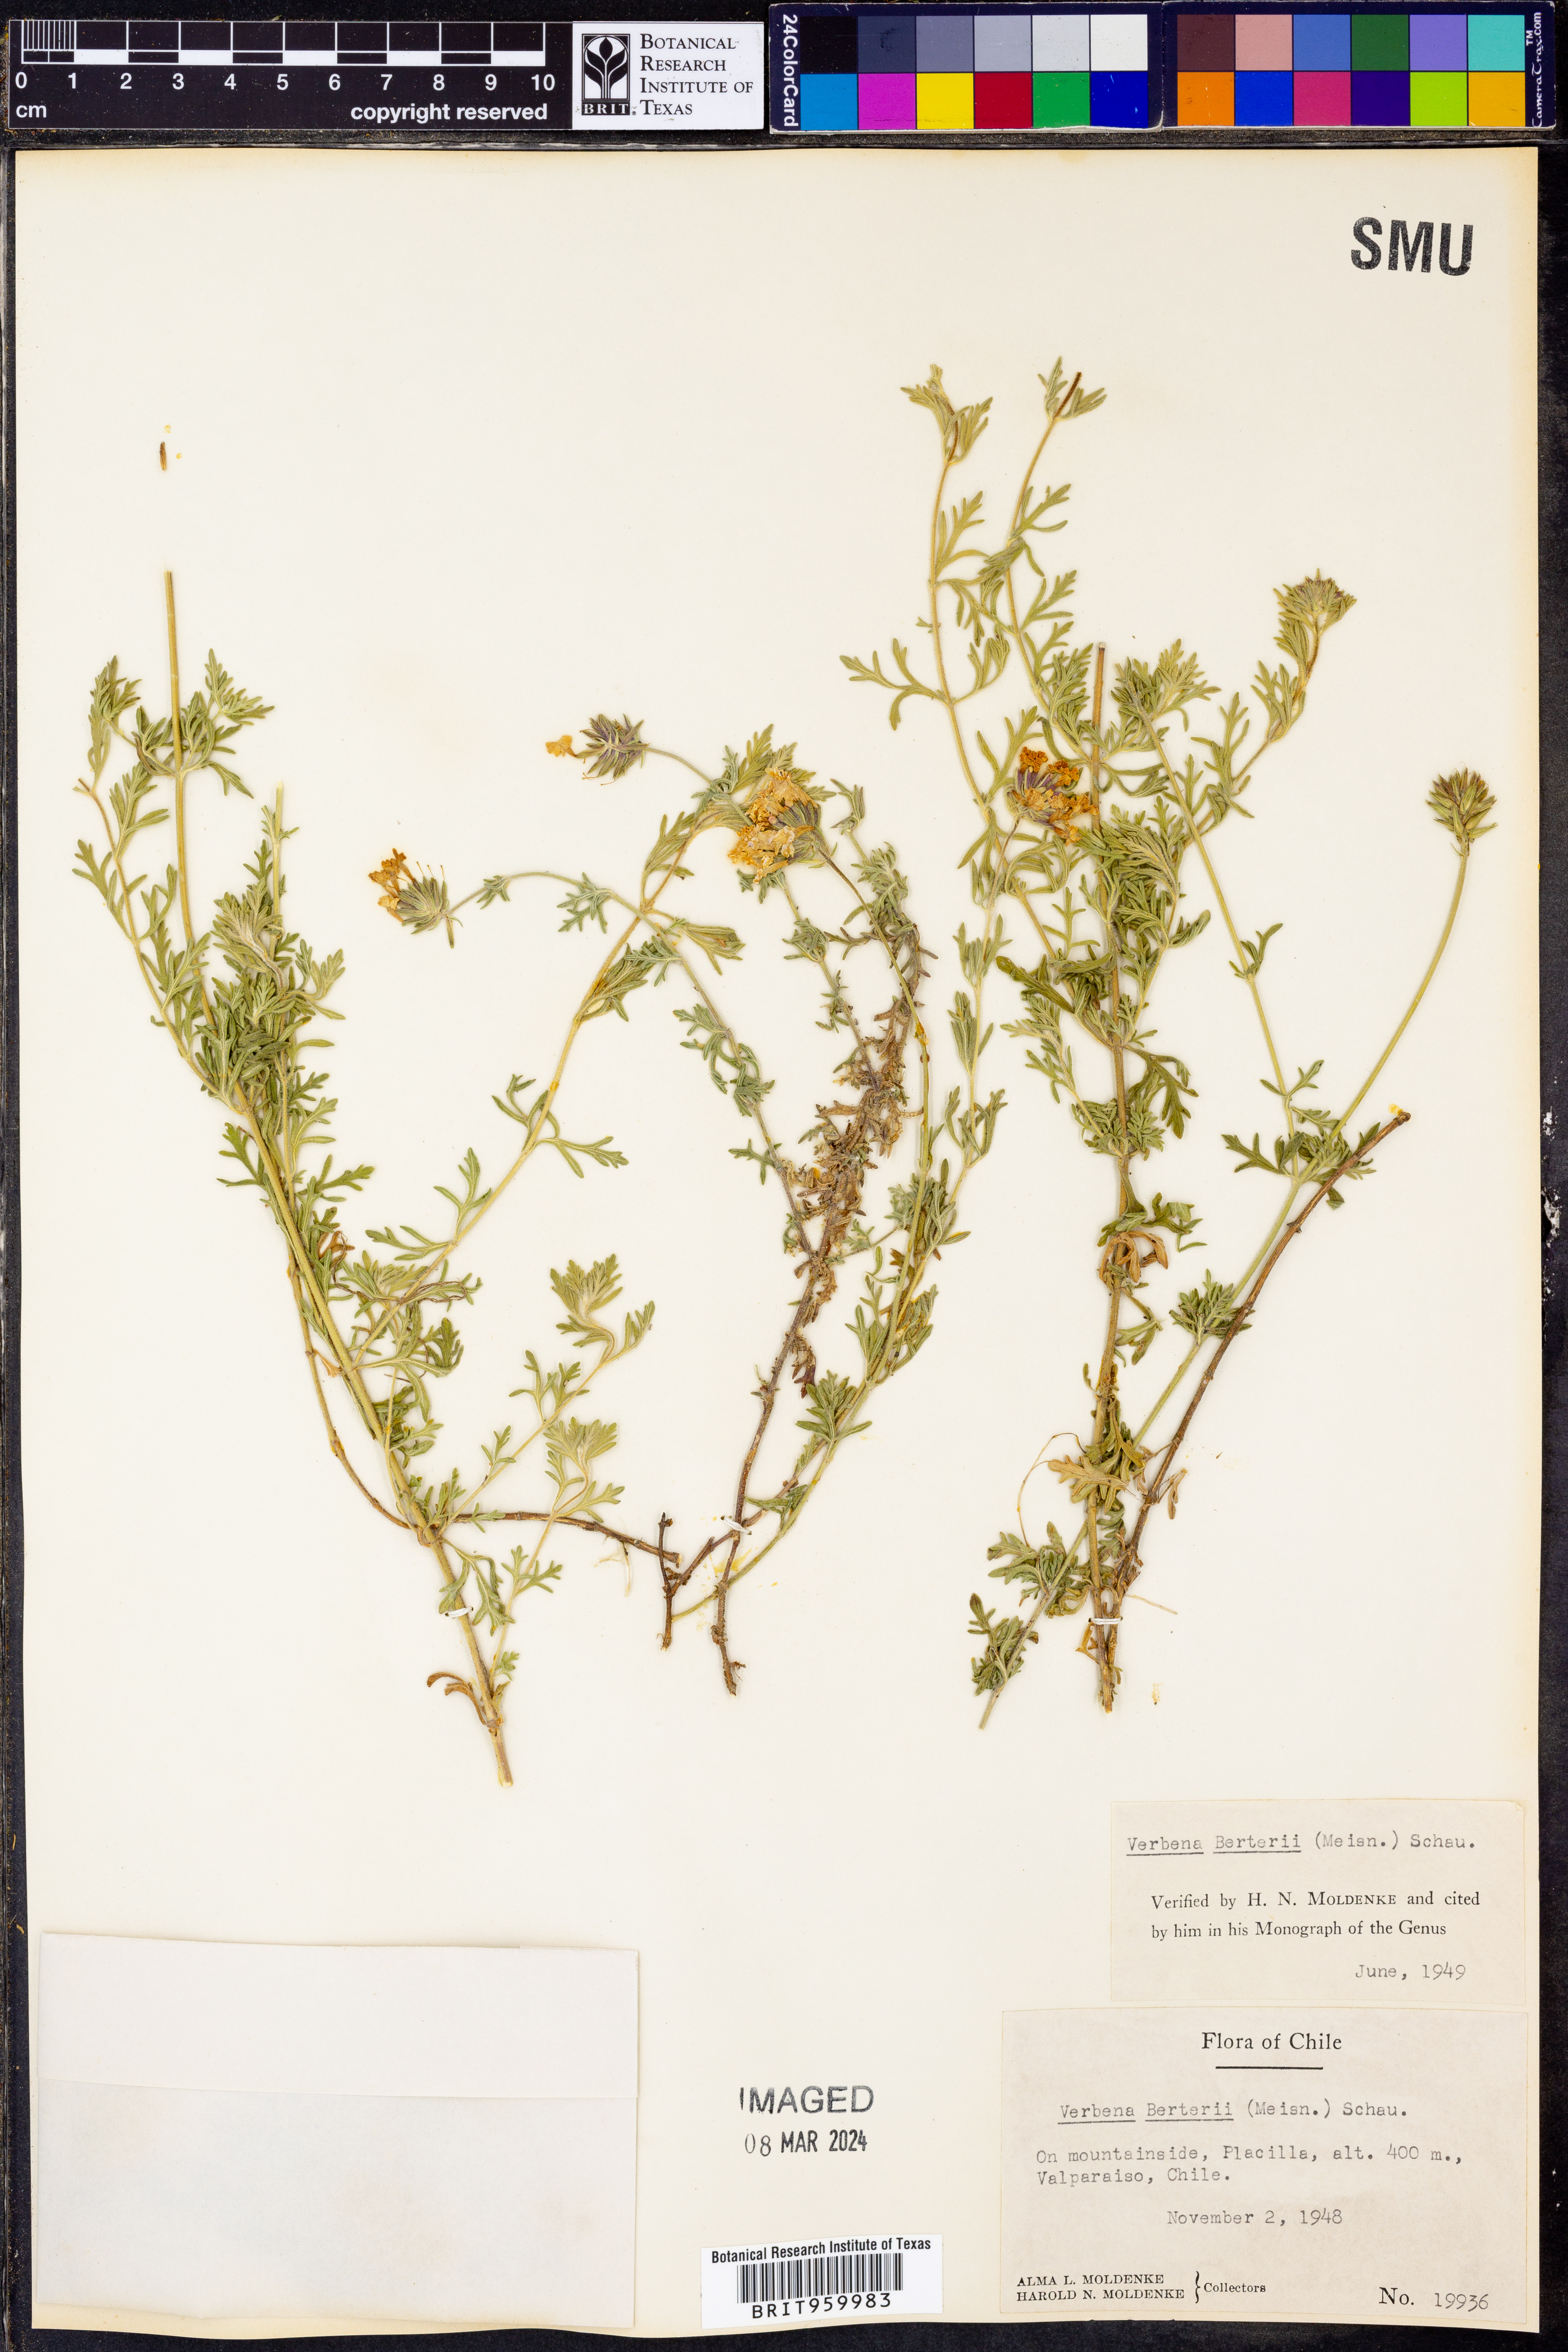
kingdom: Plantae
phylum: Tracheophyta
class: Magnoliopsida
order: Lamiales
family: Verbenaceae
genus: Verbena
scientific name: Verbena
